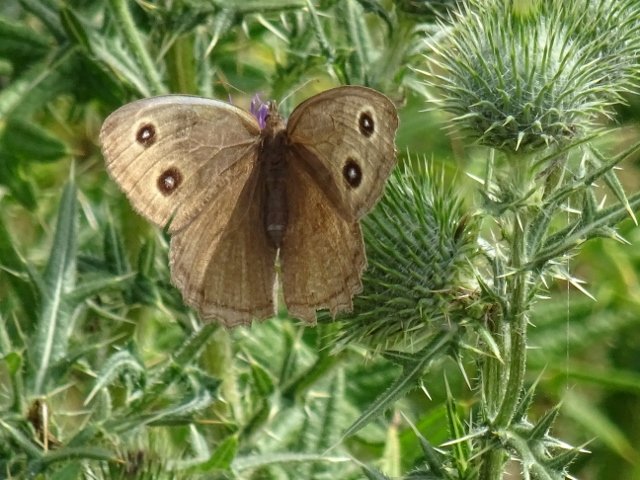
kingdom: Animalia
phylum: Arthropoda
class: Insecta
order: Lepidoptera
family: Nymphalidae
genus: Cercyonis
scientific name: Cercyonis pegala
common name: Common Wood-Nymph
